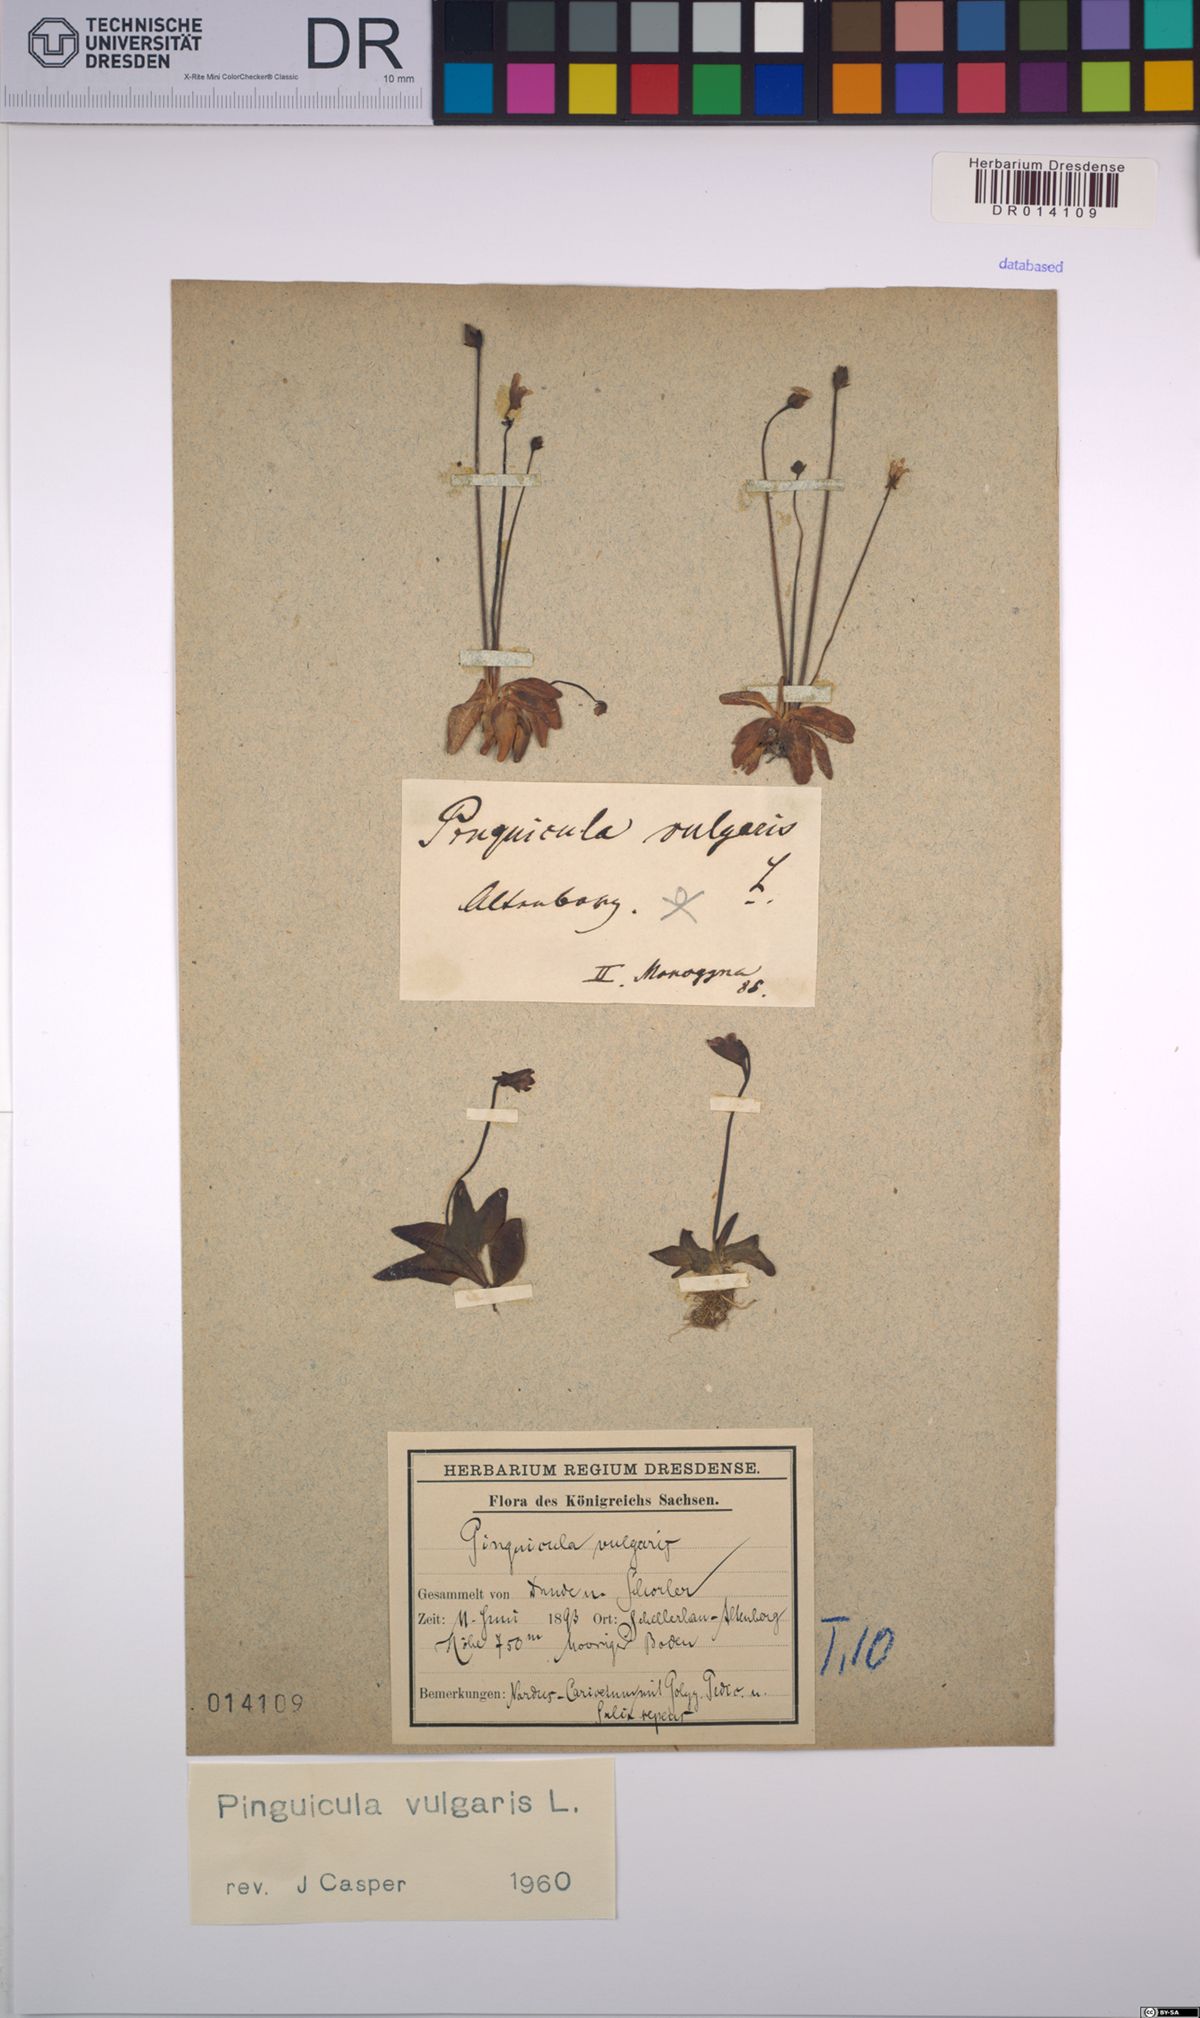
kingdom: Plantae
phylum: Tracheophyta
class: Magnoliopsida
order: Lamiales
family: Lentibulariaceae
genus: Pinguicula
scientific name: Pinguicula vulgaris
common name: Common butterwort
